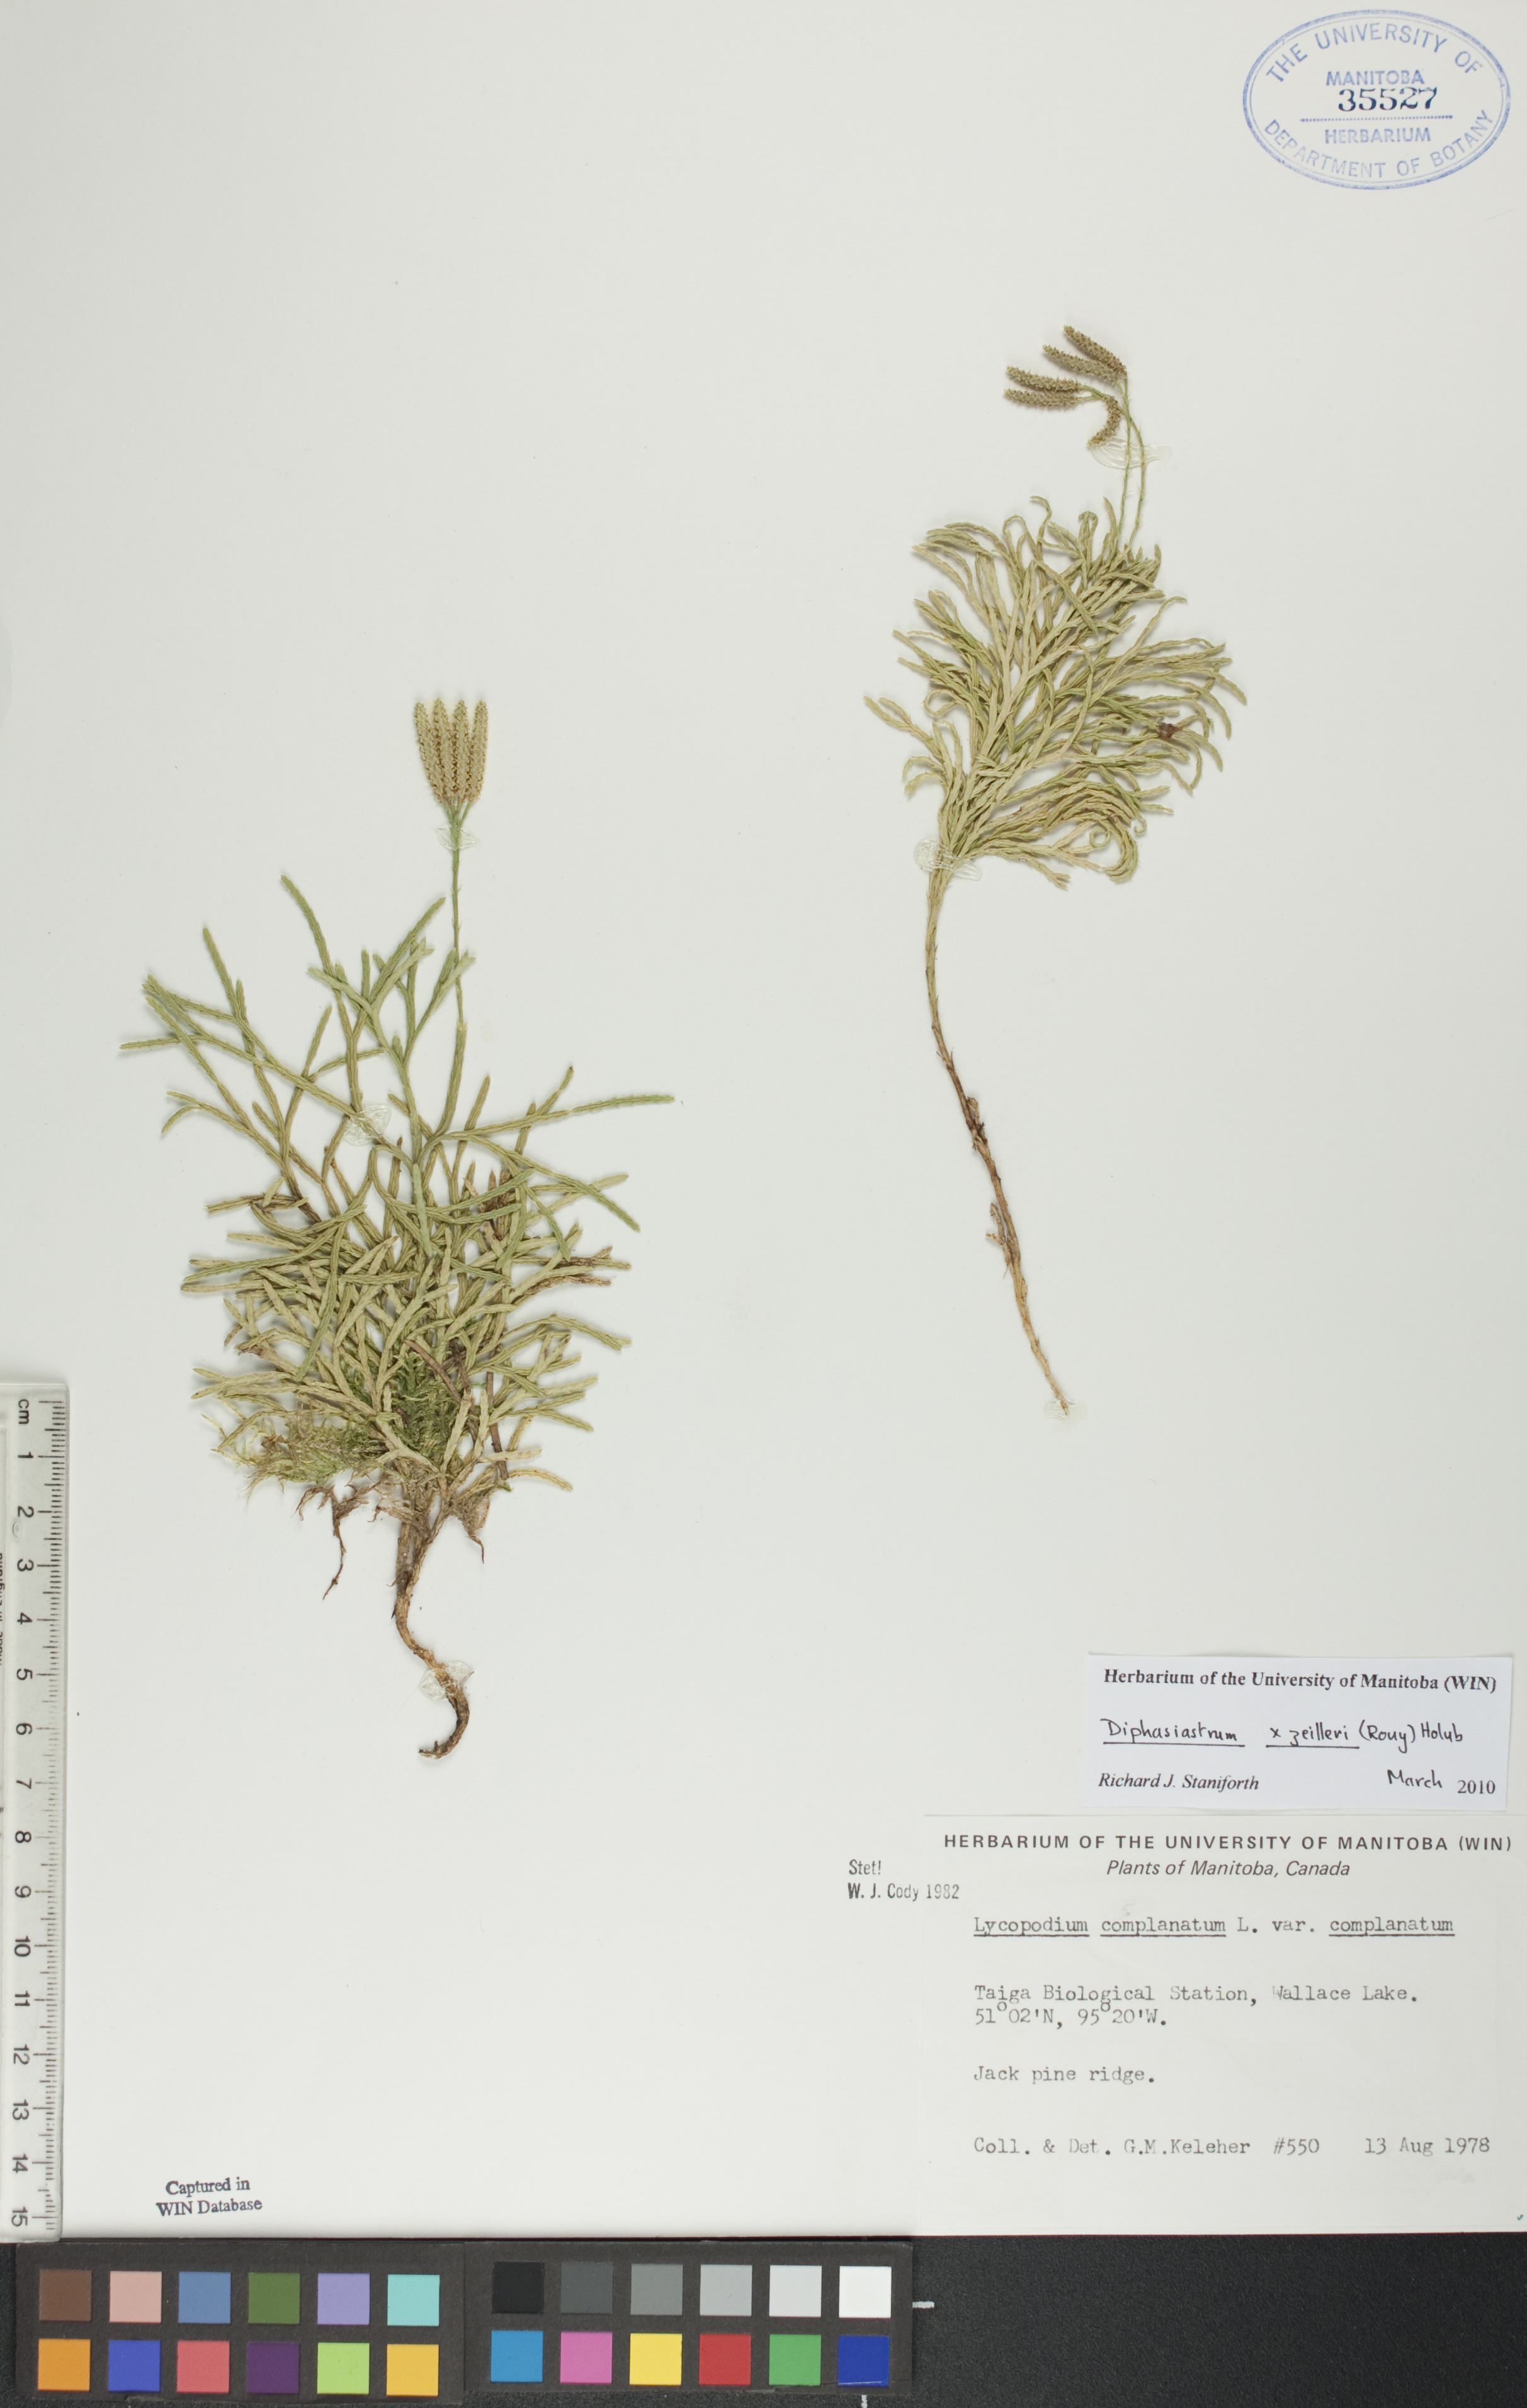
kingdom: Plantae
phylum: Tracheophyta
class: Lycopodiopsida
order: Lycopodiales
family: Lycopodiaceae
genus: Diphasiastrum
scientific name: Diphasiastrum zeilleri
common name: Zeiller's clubmoss
